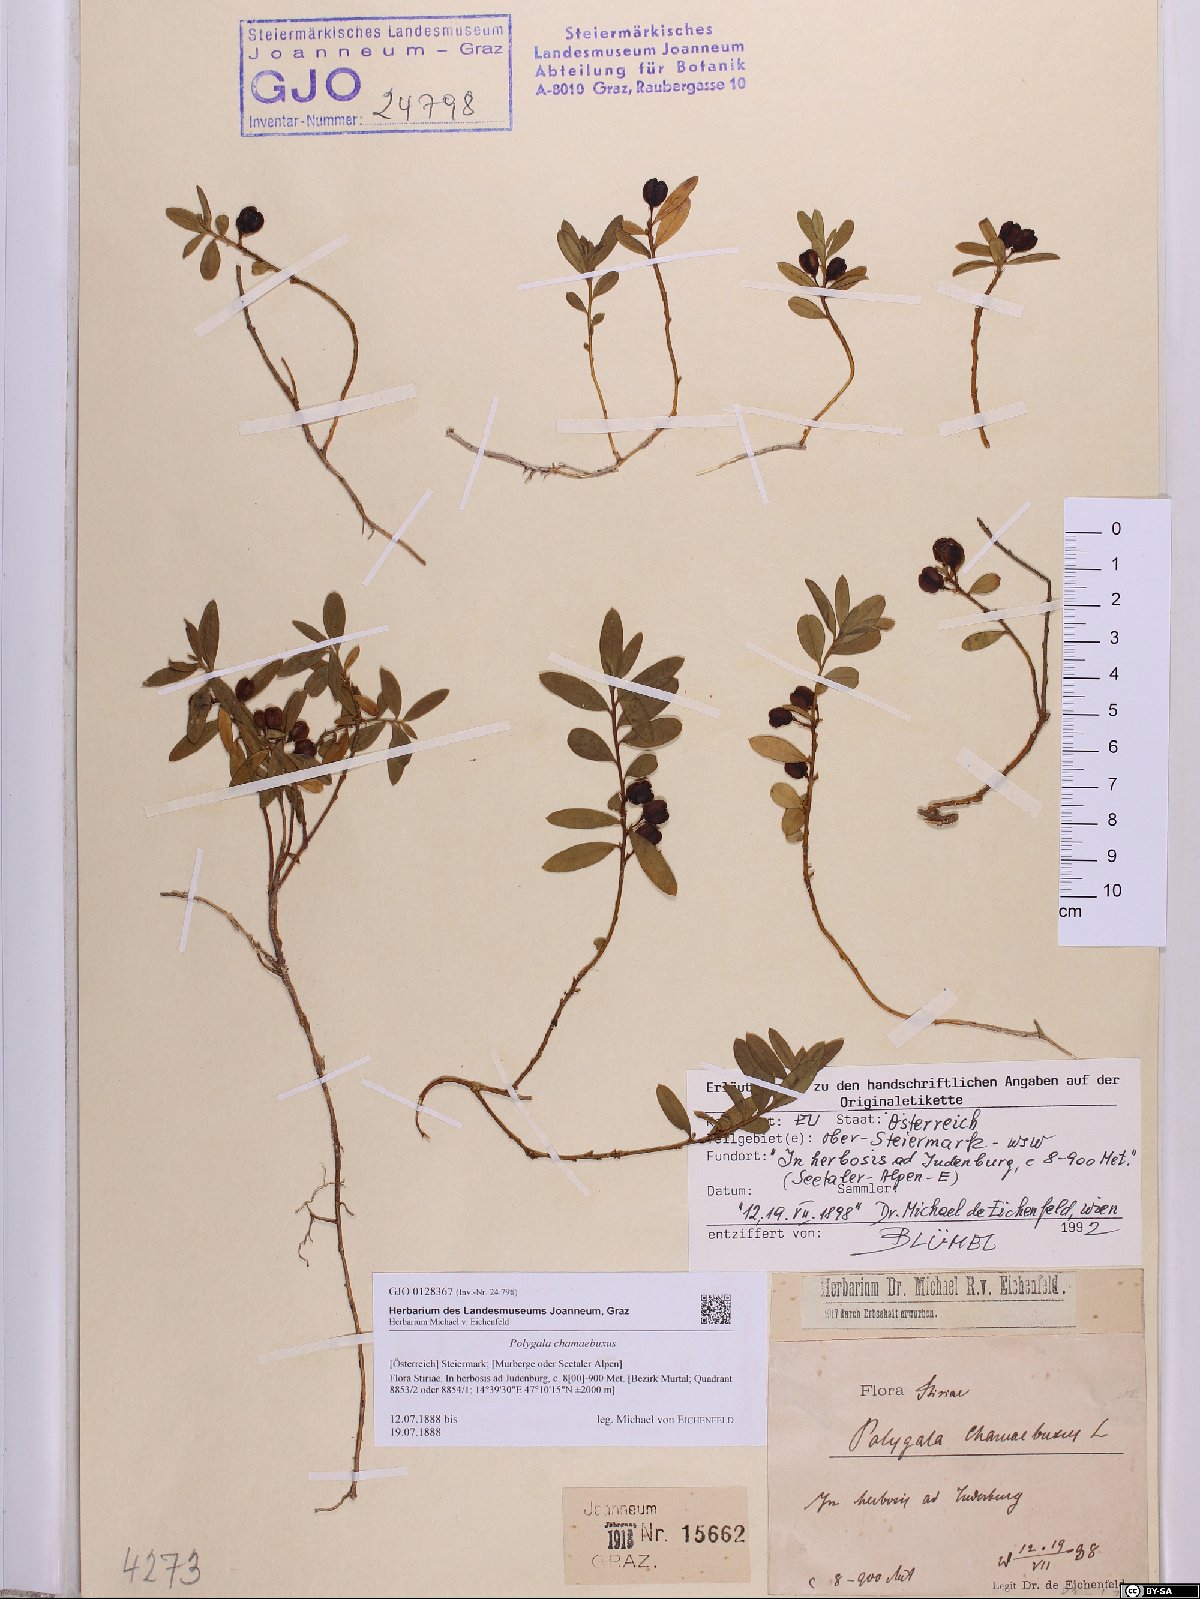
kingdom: Plantae
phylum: Tracheophyta
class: Magnoliopsida
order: Fabales
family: Polygalaceae
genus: Polygaloides
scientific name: Polygaloides chamaebuxus
